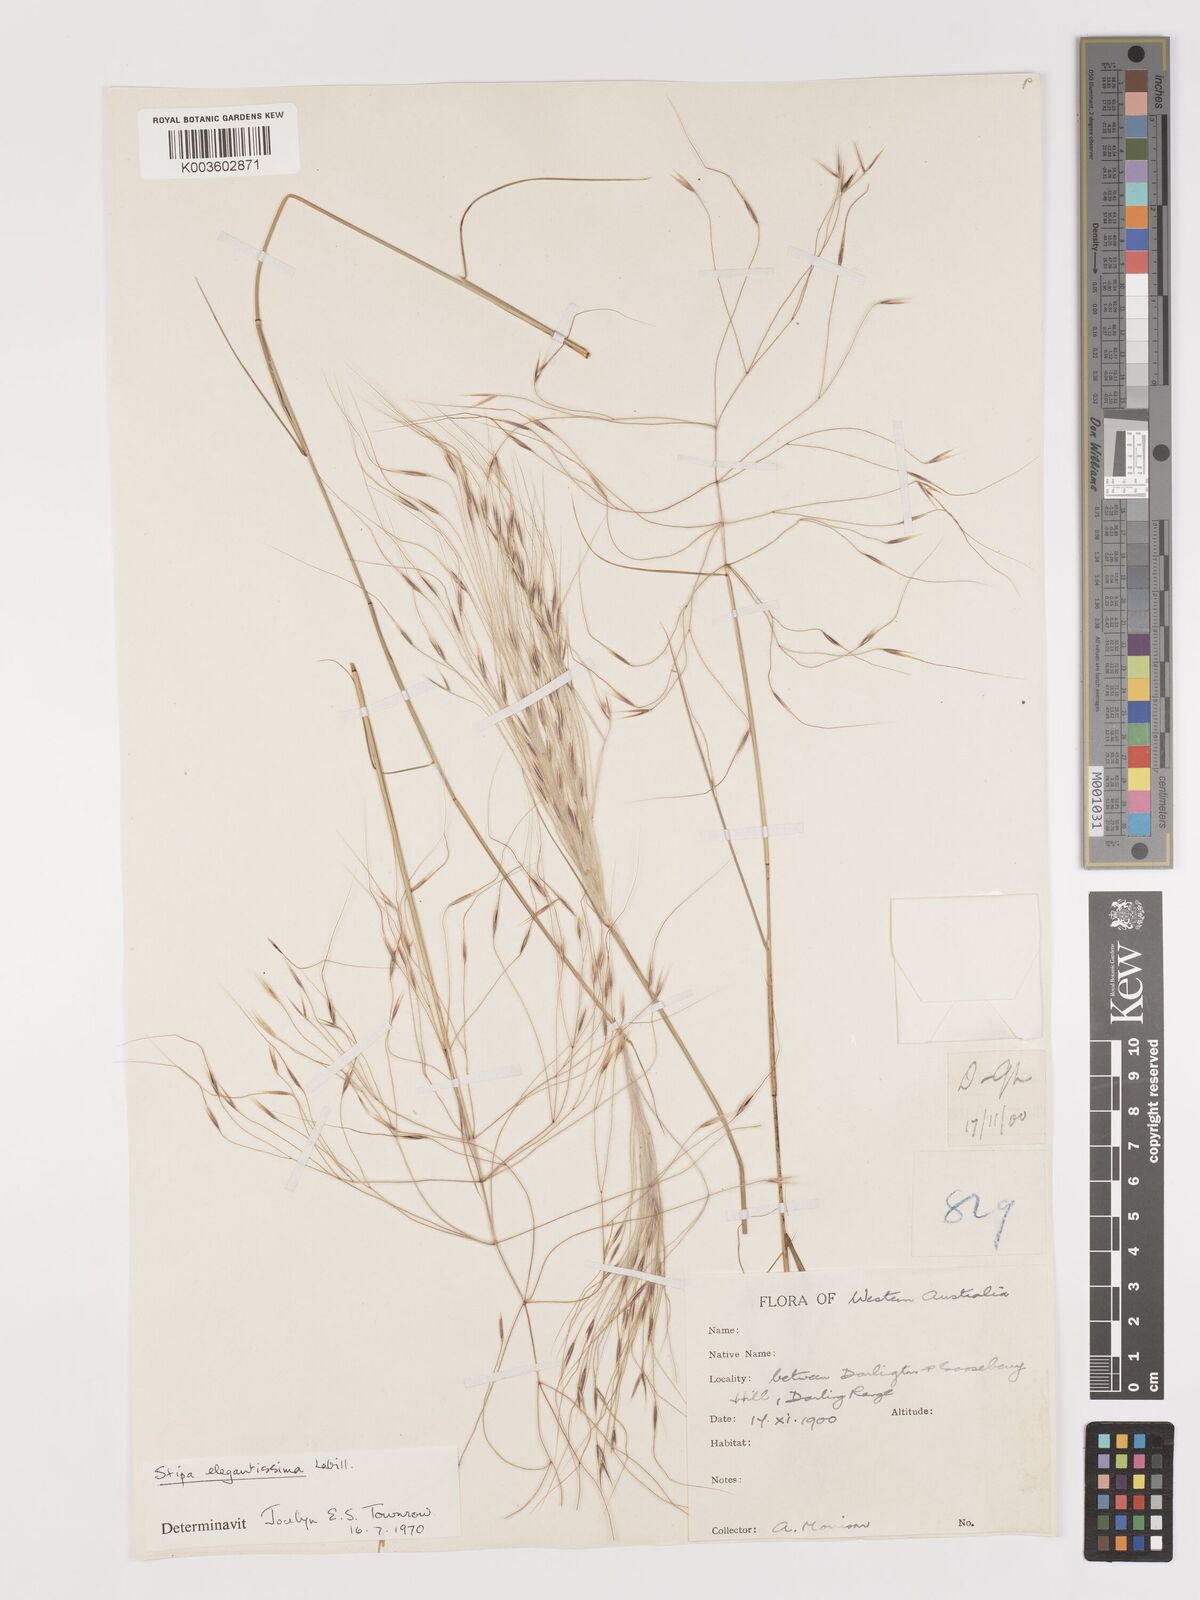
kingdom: Plantae
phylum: Tracheophyta
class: Liliopsida
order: Poales
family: Poaceae
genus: Austrostipa
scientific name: Austrostipa elegantissima
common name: Feather spear grass
